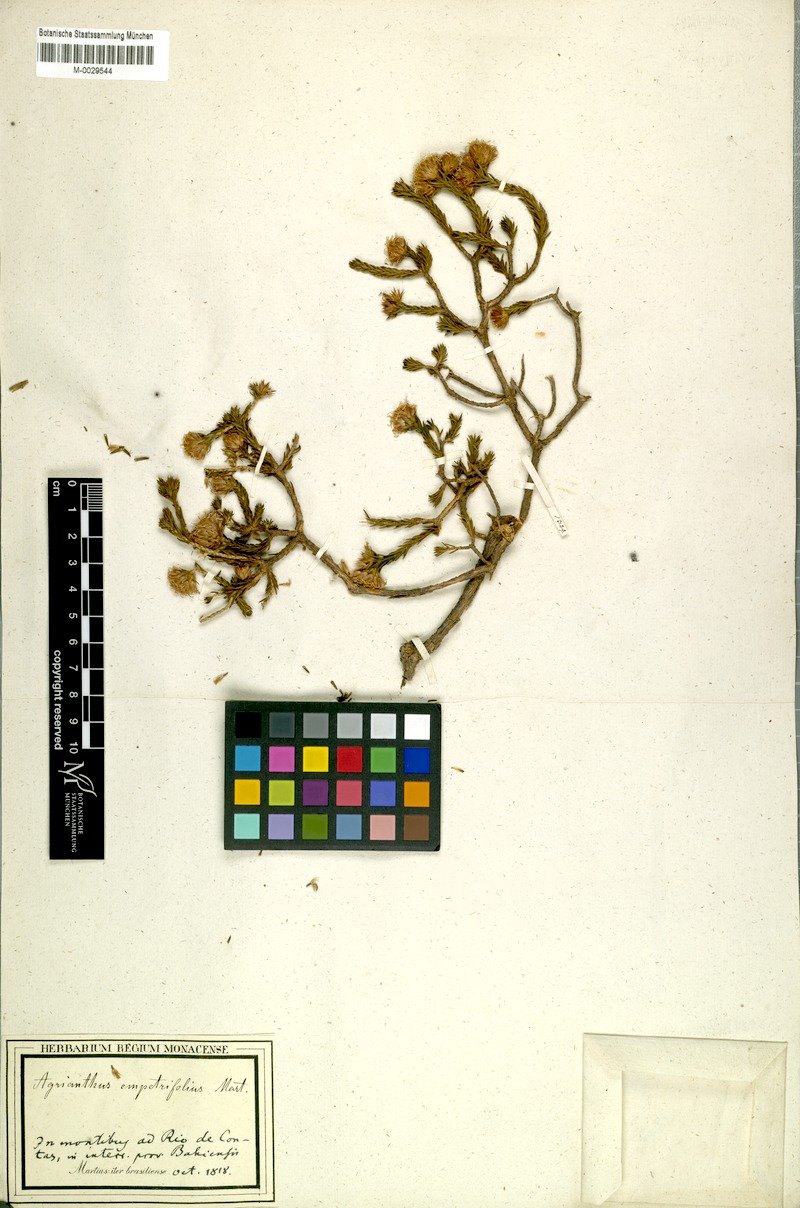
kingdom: Plantae
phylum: Tracheophyta
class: Magnoliopsida
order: Asterales
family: Asteraceae
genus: Agrianthus
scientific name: Agrianthus empetrifolius
